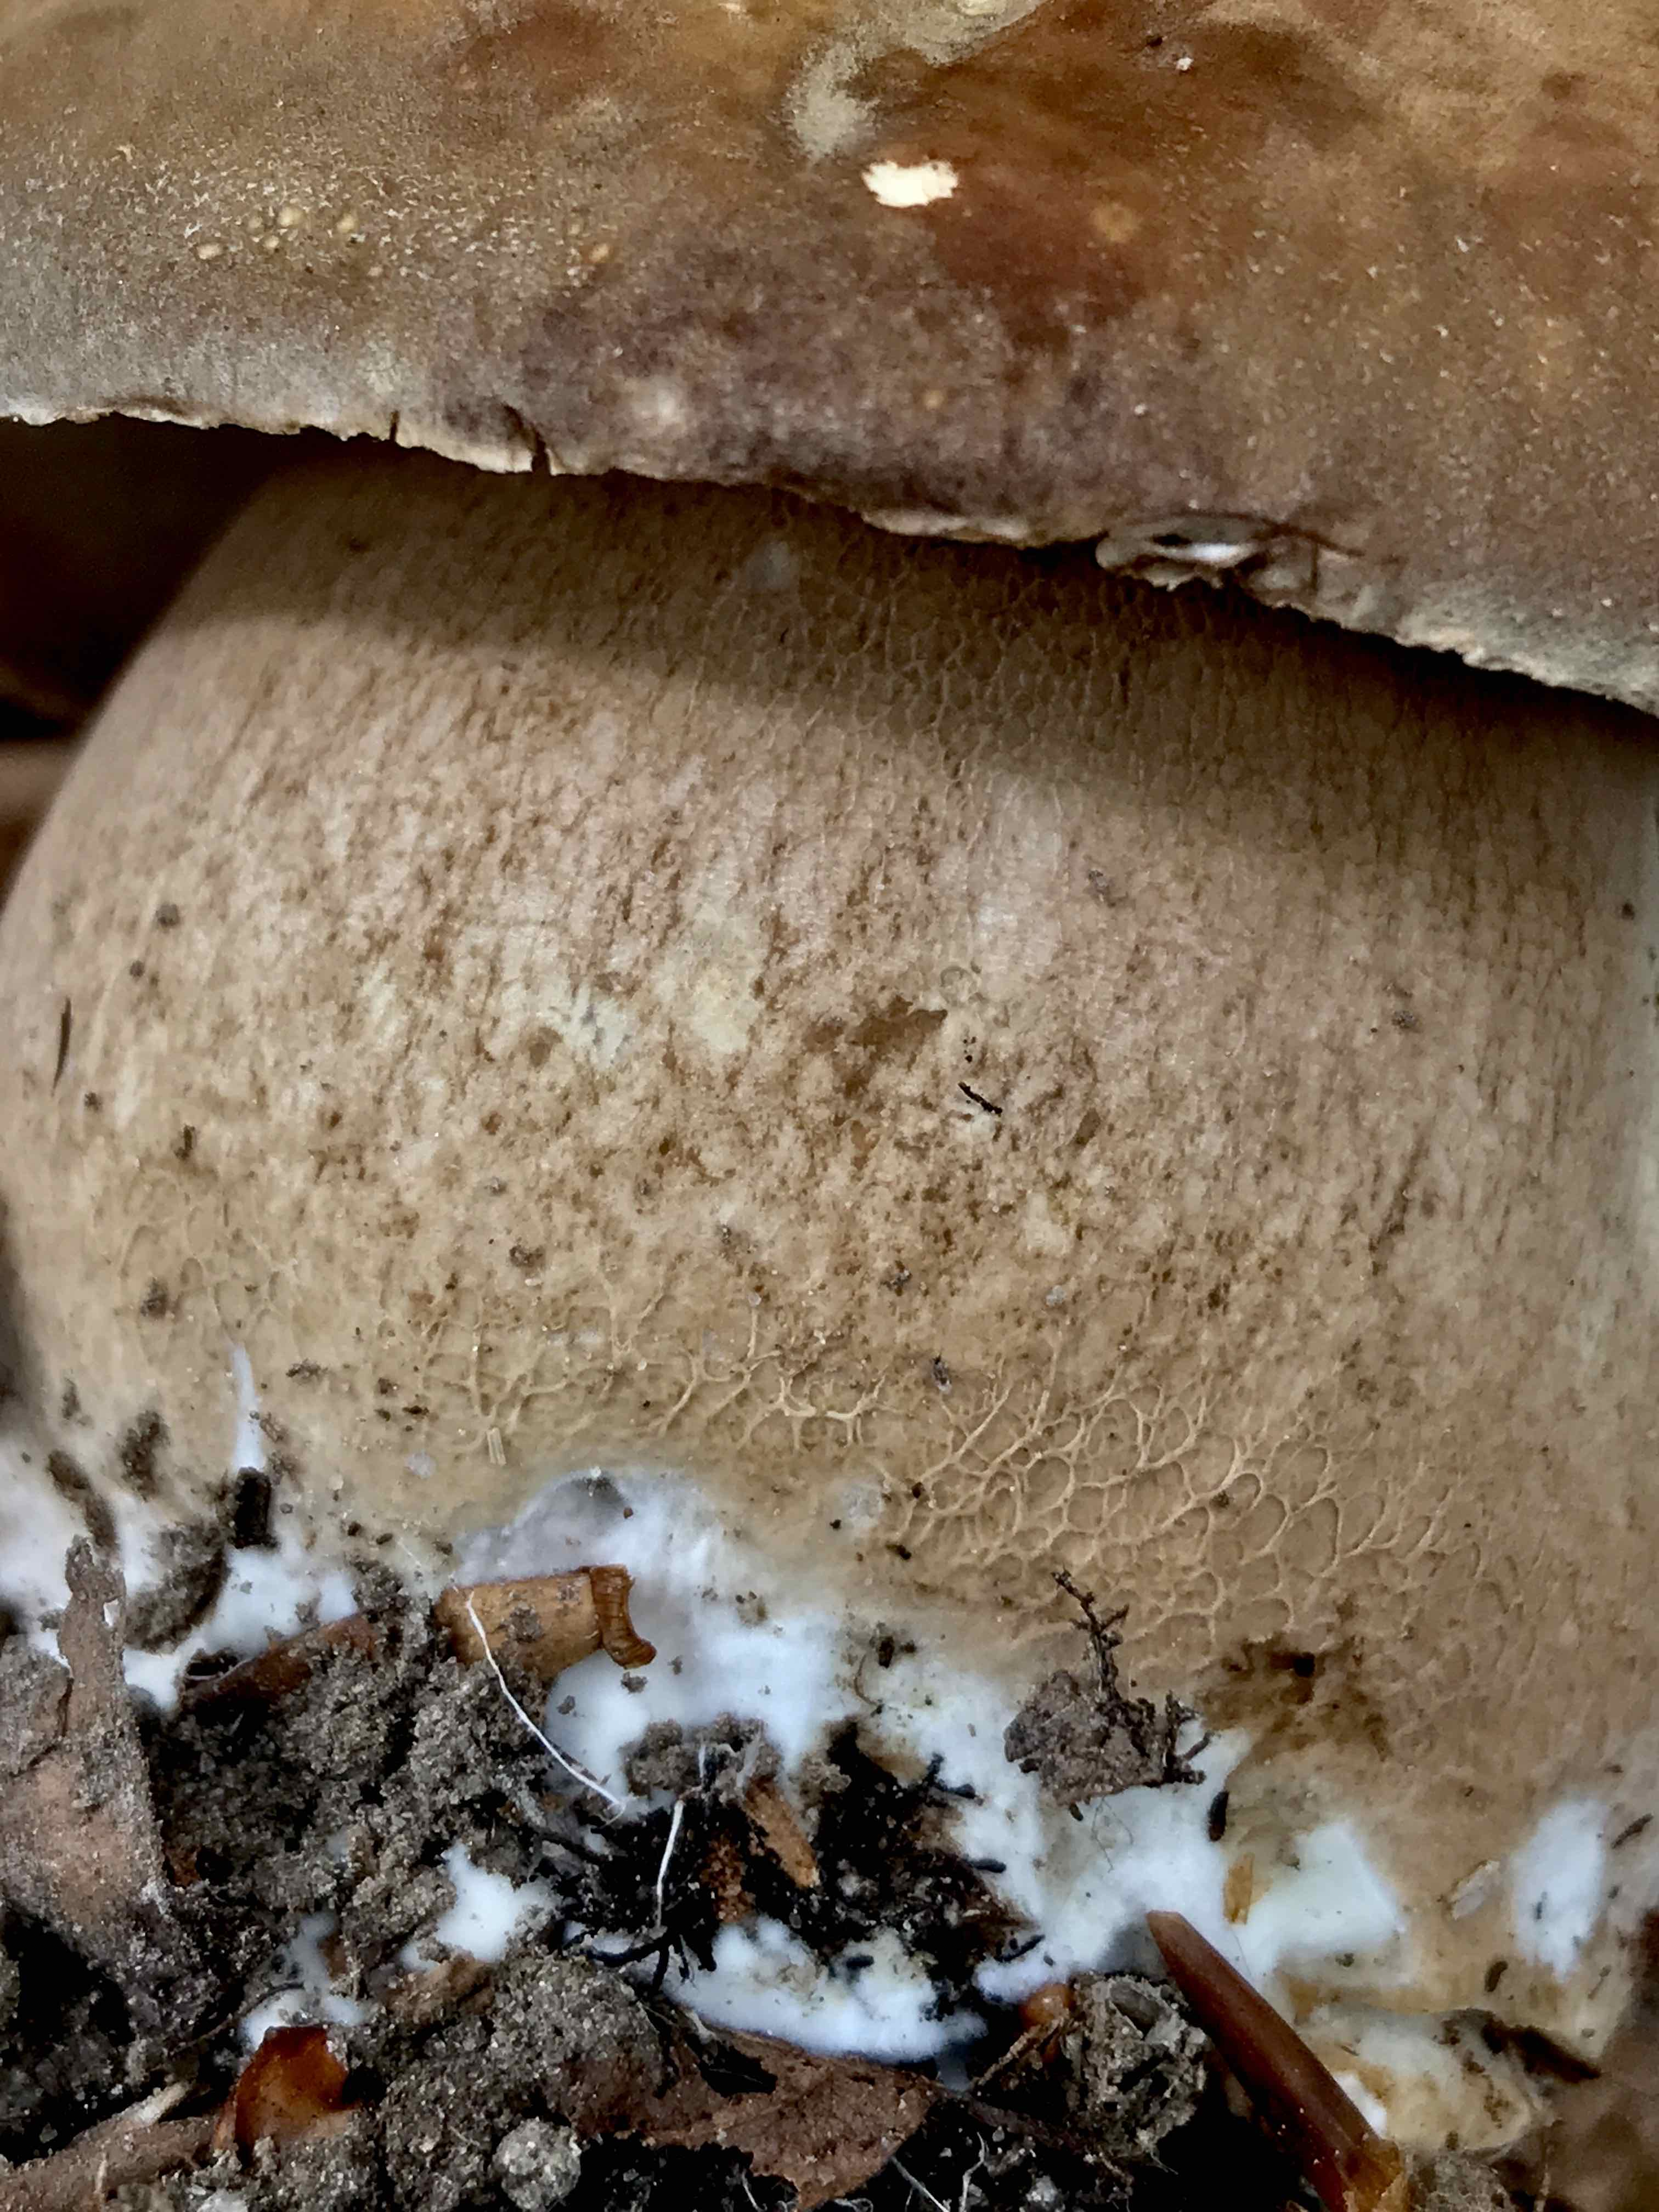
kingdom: Fungi
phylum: Basidiomycota
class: Agaricomycetes
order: Boletales
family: Boletaceae
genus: Boletus
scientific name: Boletus edulis
